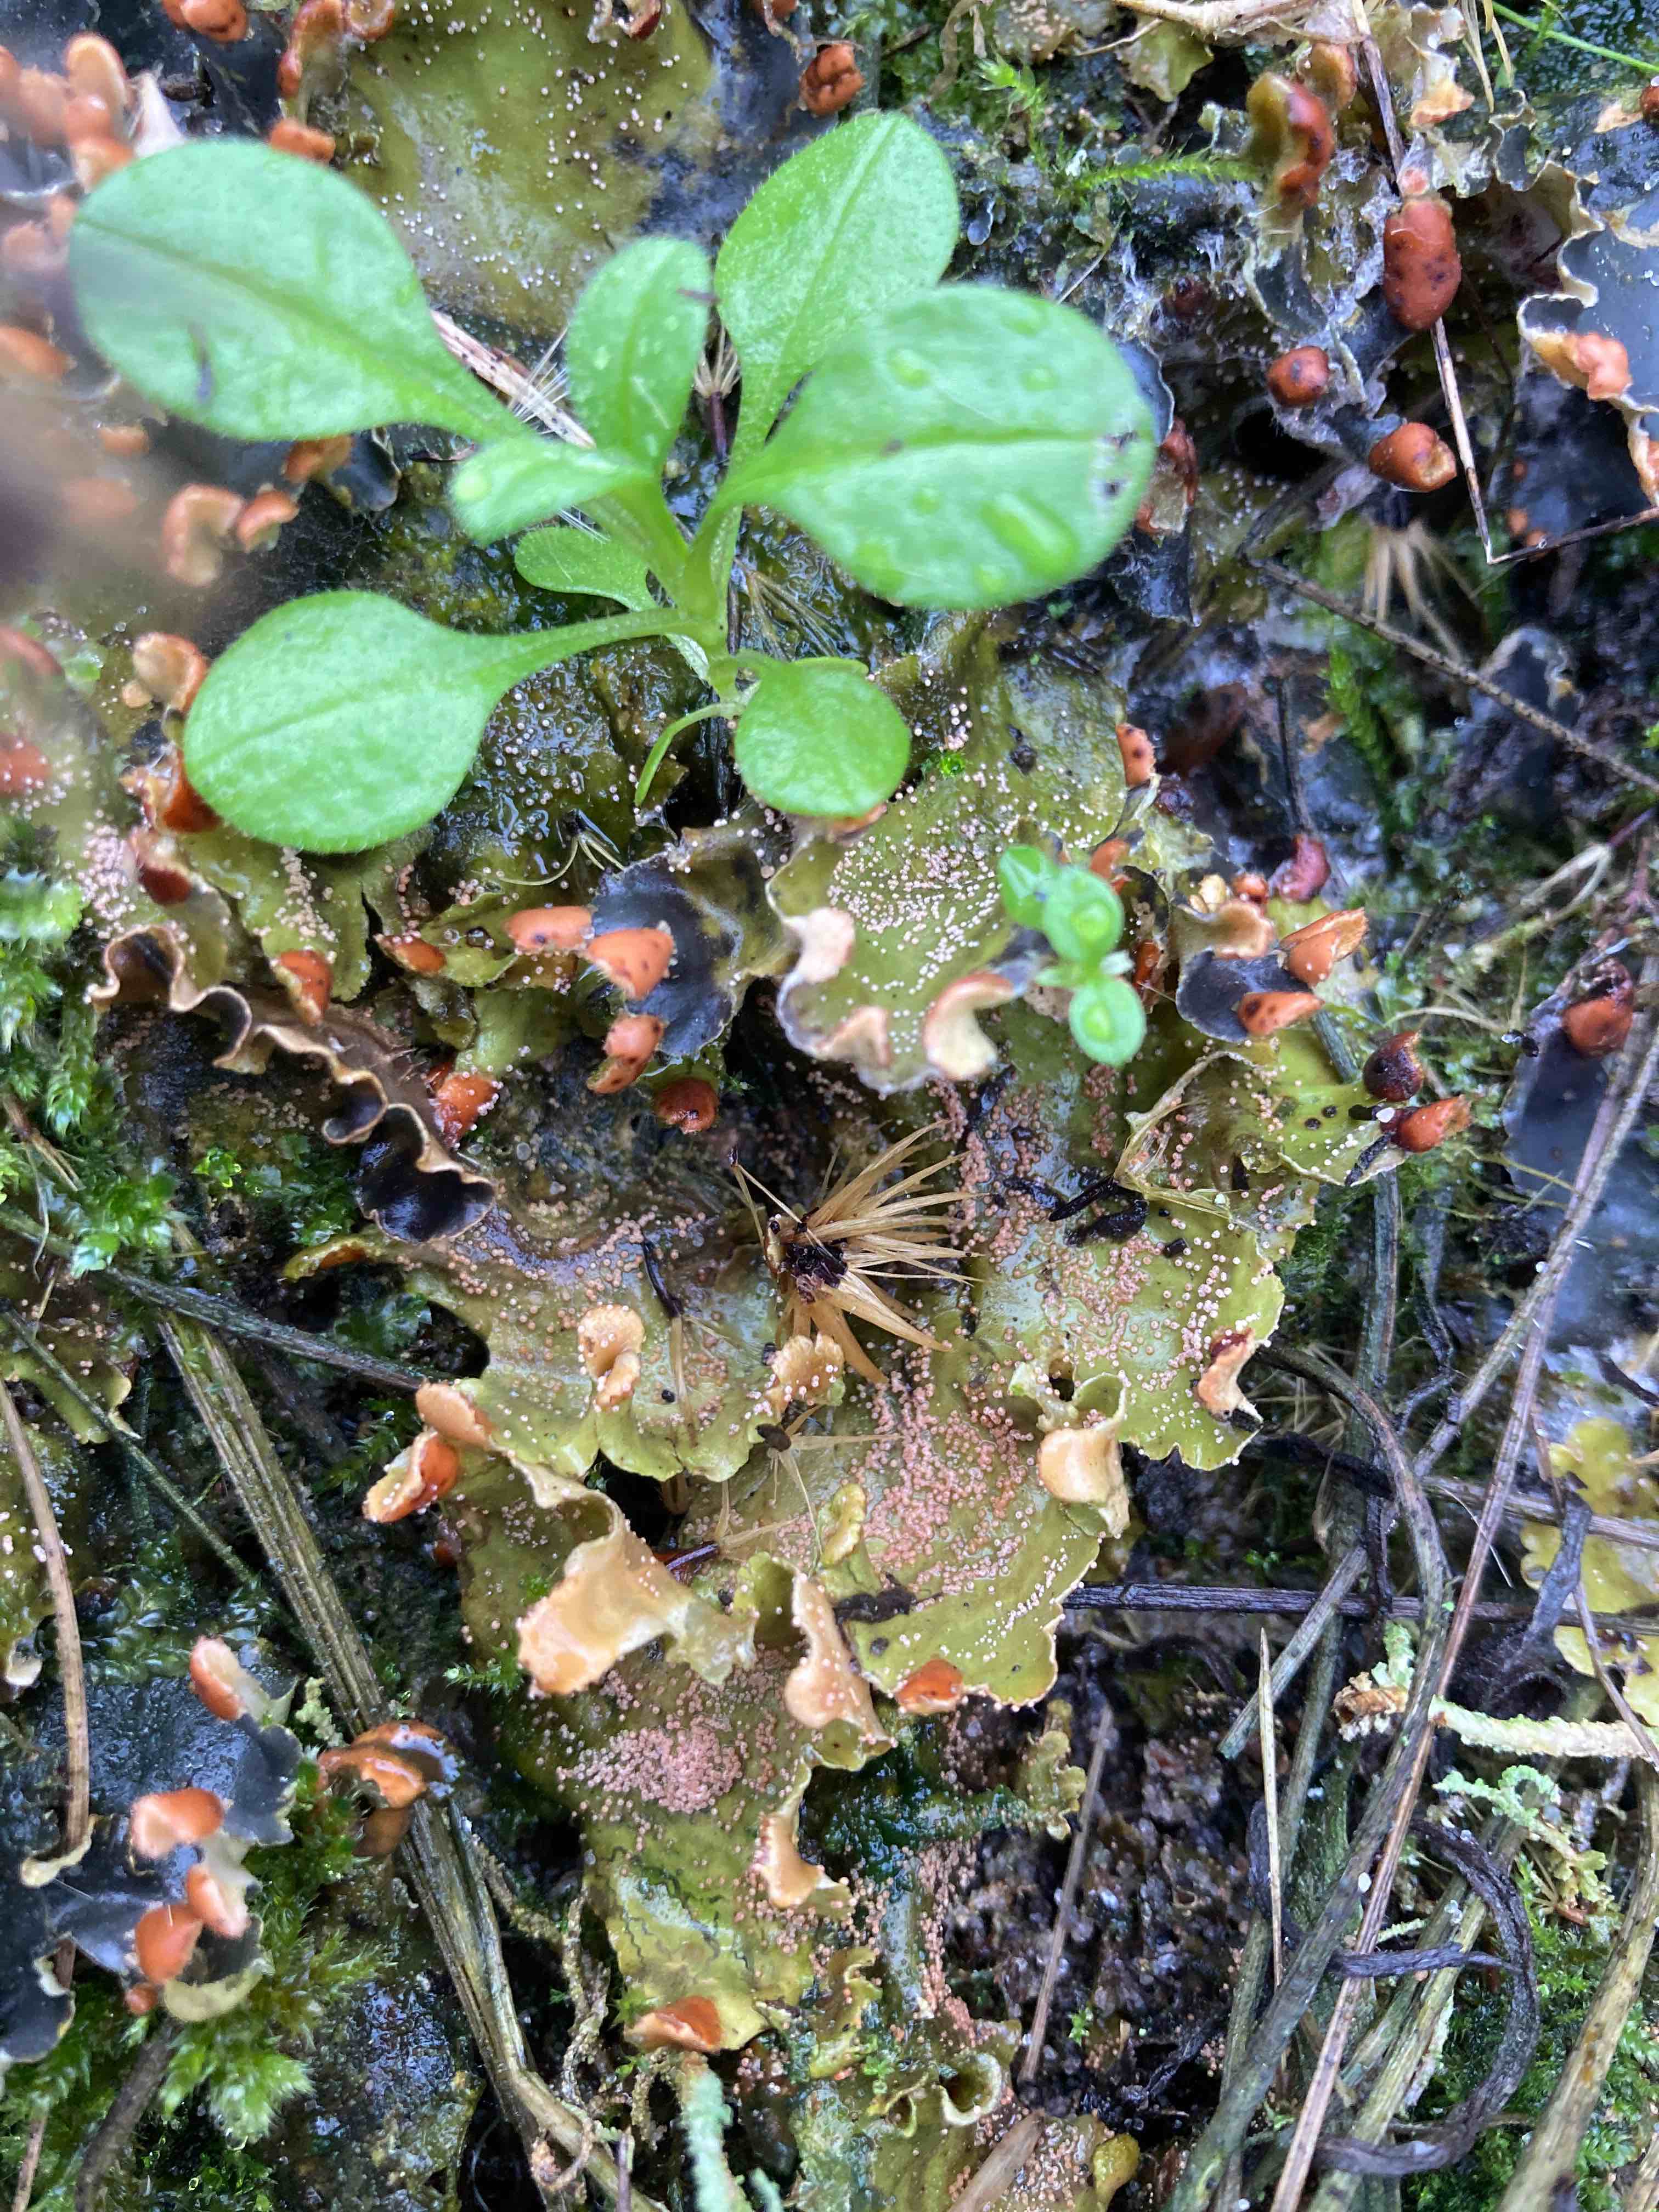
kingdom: Fungi
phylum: Ascomycota
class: Sordariomycetes
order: Hypocreales
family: Bionectriaceae
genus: Nectriopsis
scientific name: Nectriopsis lecanodes
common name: skjoldlav-gyldenkerne
